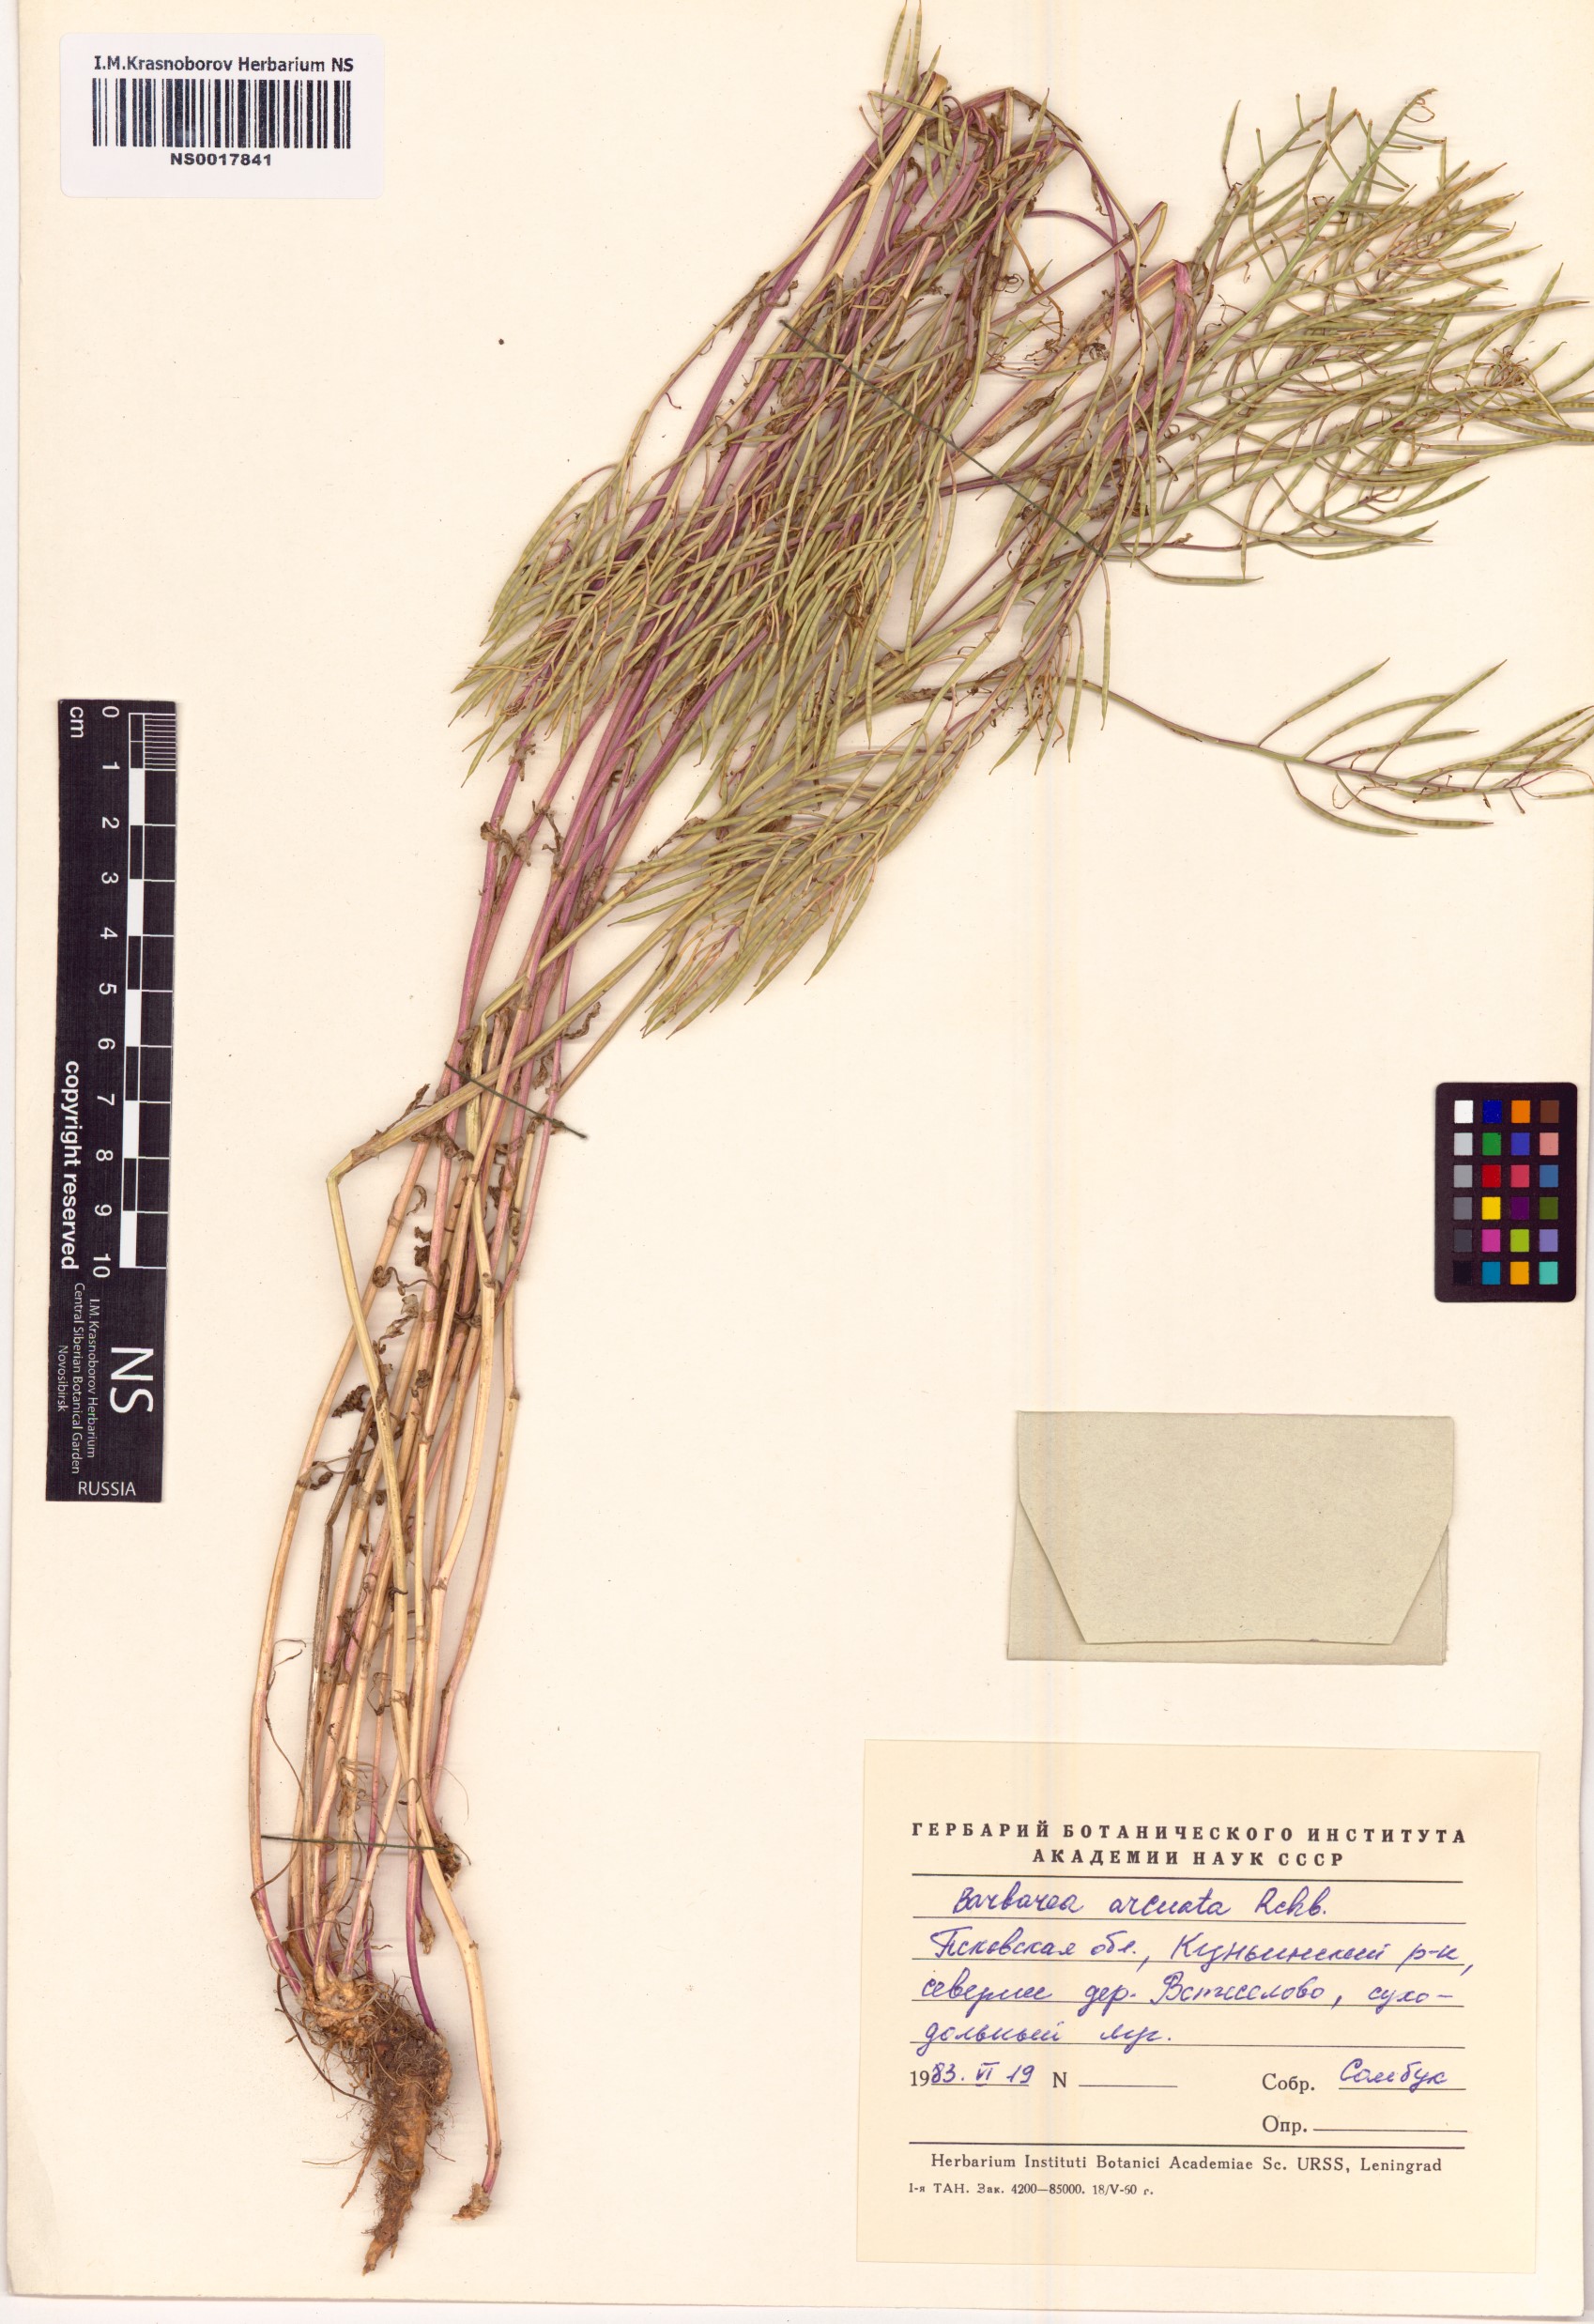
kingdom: Plantae
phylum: Tracheophyta
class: Magnoliopsida
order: Brassicales
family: Brassicaceae
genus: Barbarea
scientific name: Barbarea vulgaris
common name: Cressy-greens
